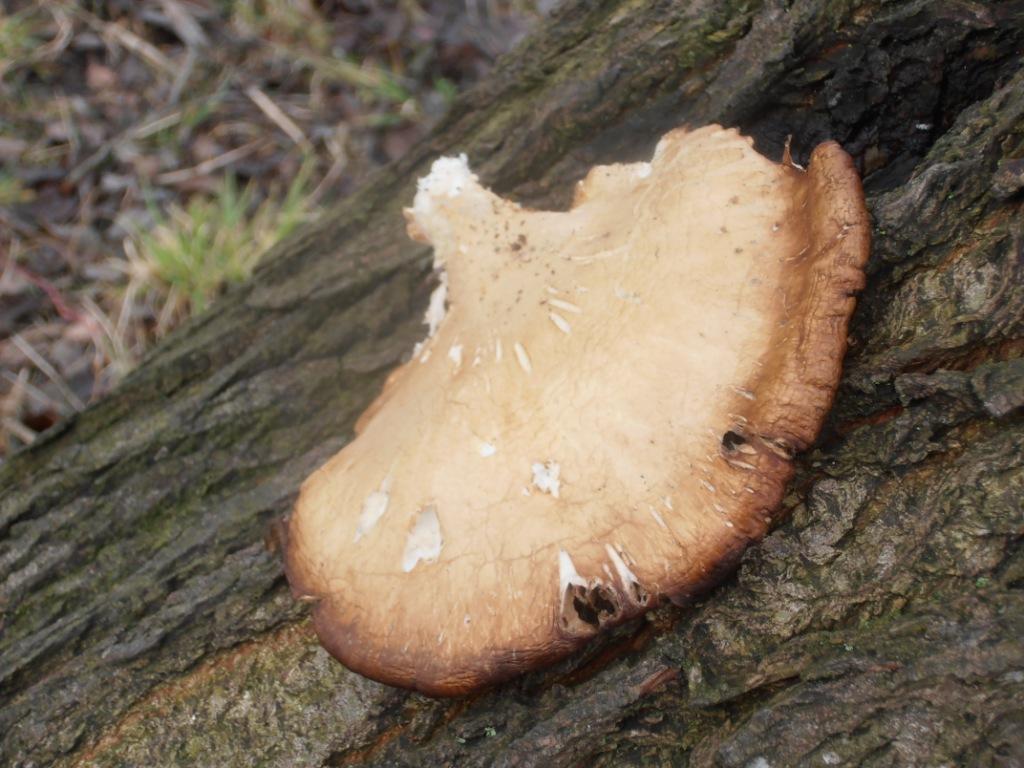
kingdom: Fungi
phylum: Basidiomycota
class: Agaricomycetes
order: Agaricales
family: Pleurotaceae
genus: Pleurotus
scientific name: Pleurotus ostreatus
